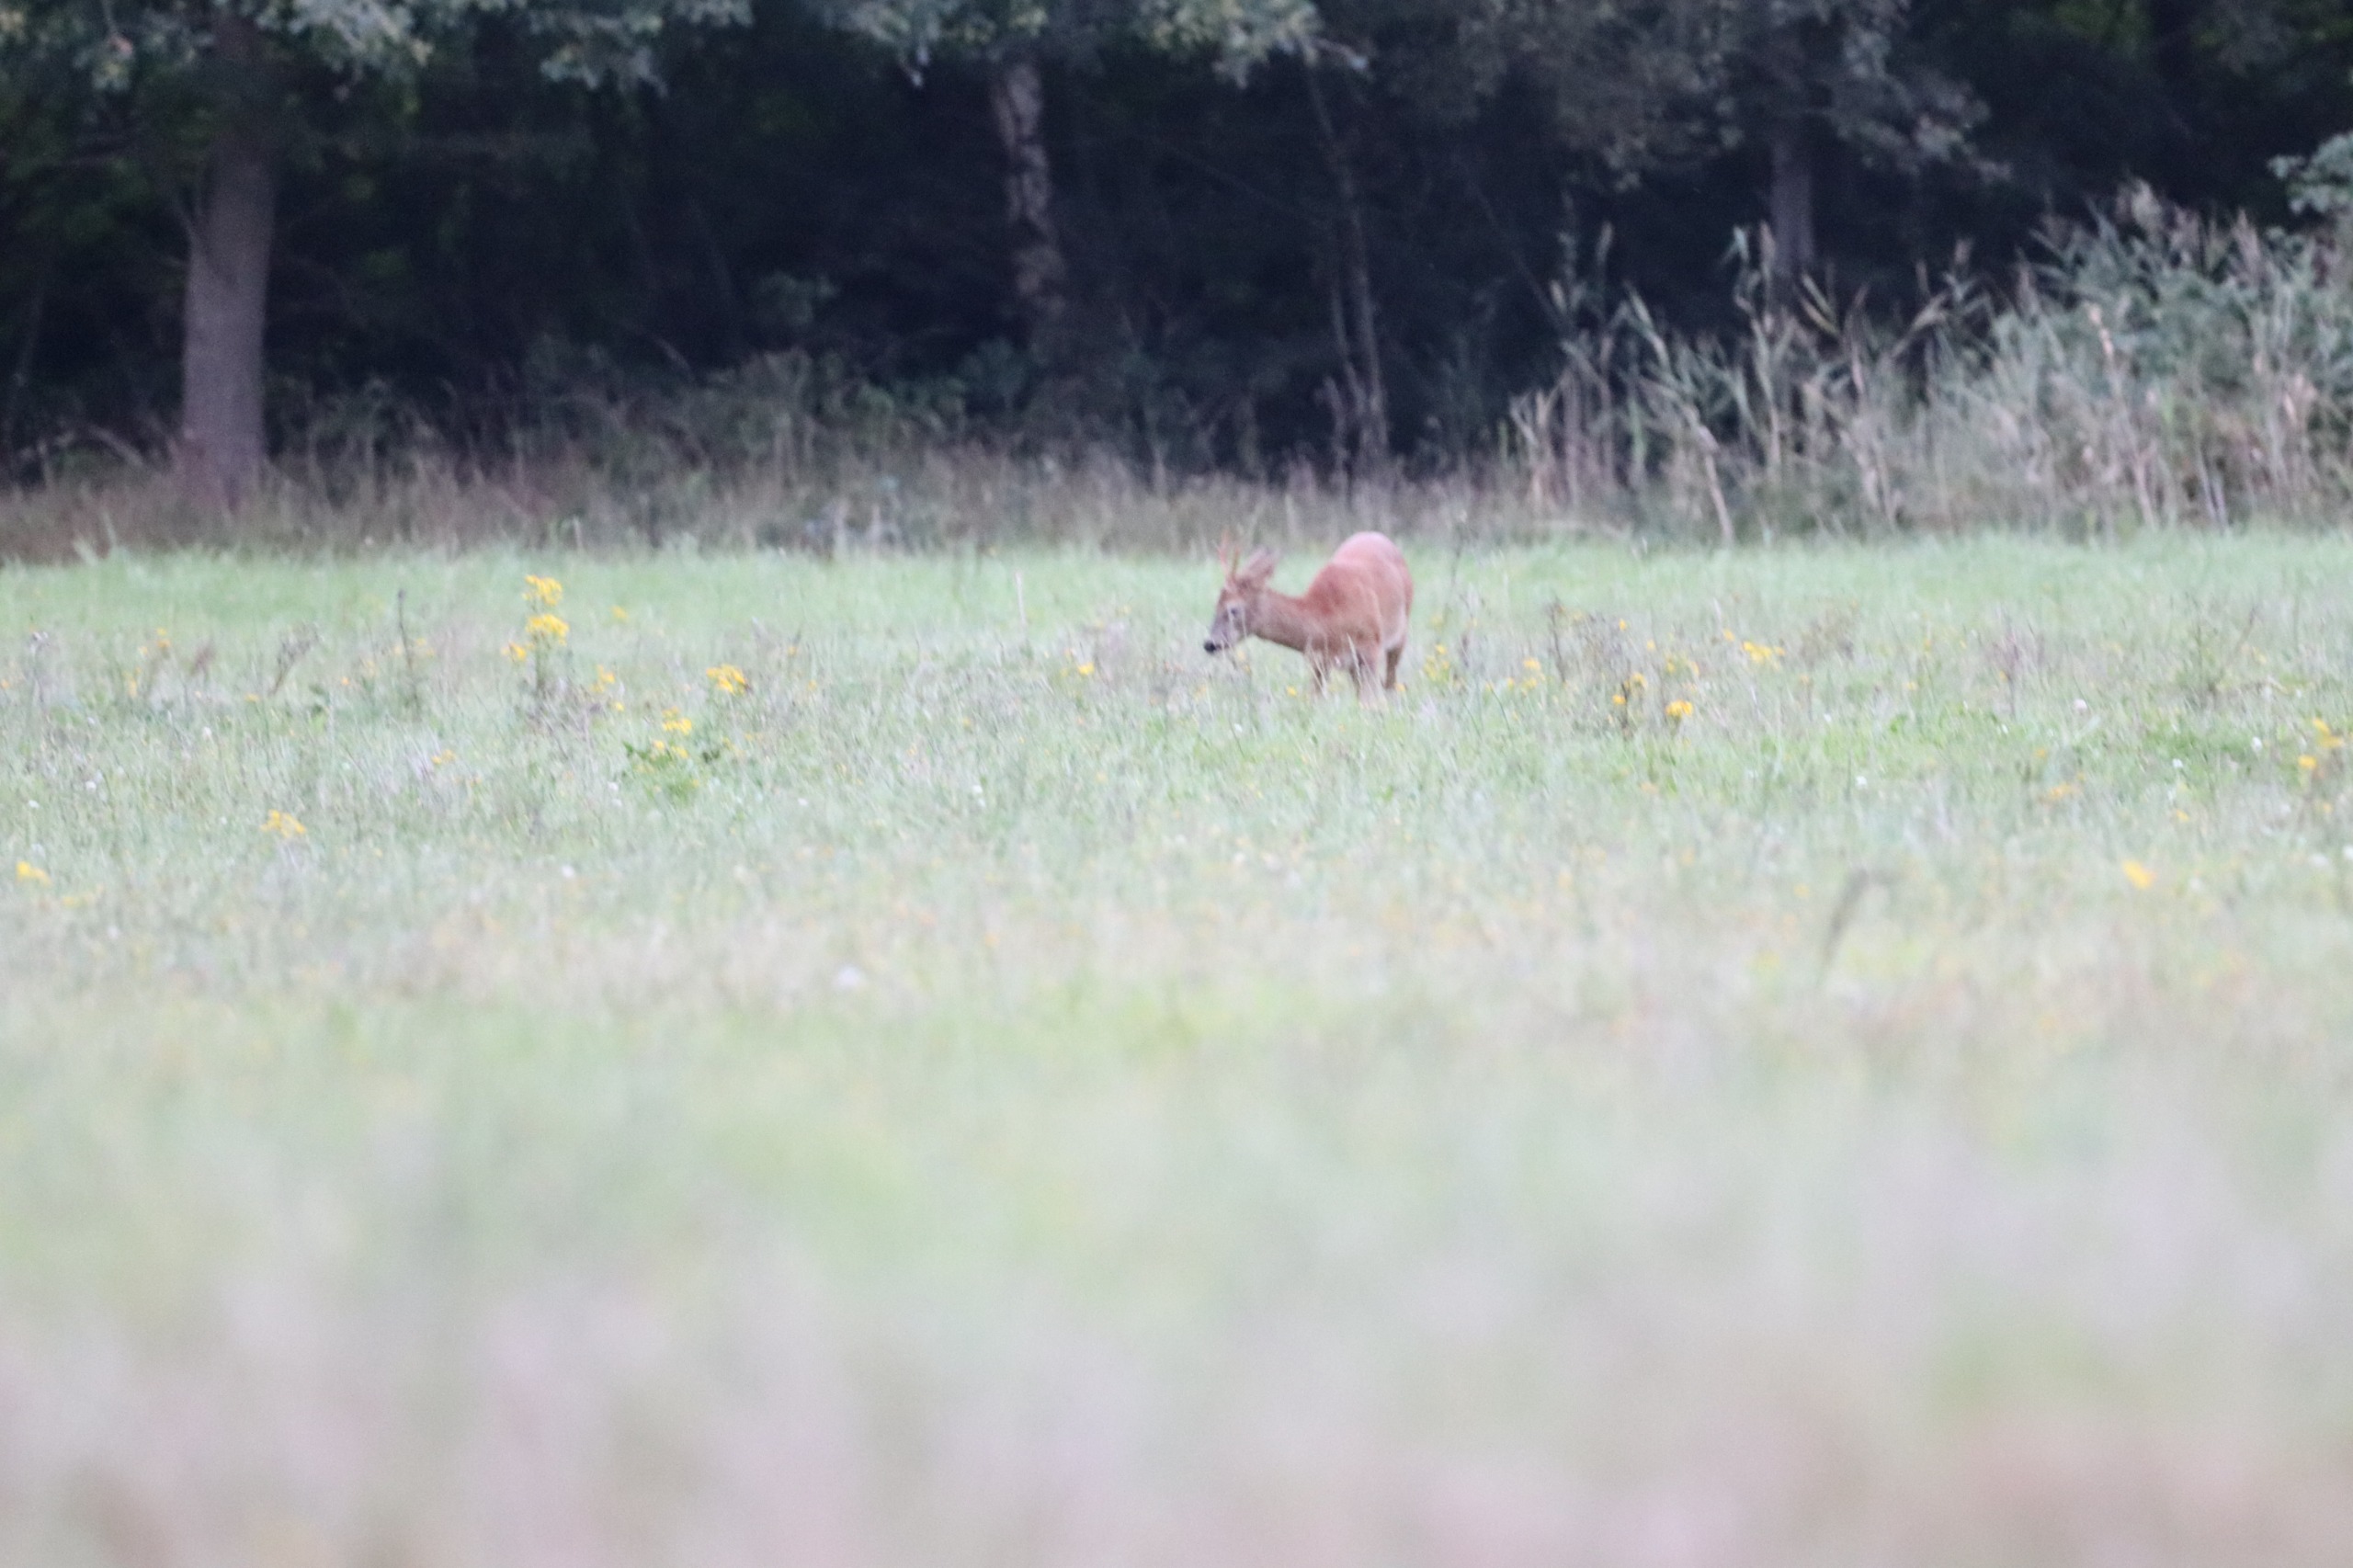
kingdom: Animalia
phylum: Chordata
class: Mammalia
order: Artiodactyla
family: Cervidae
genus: Capreolus
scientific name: Capreolus capreolus
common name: Rådyr
